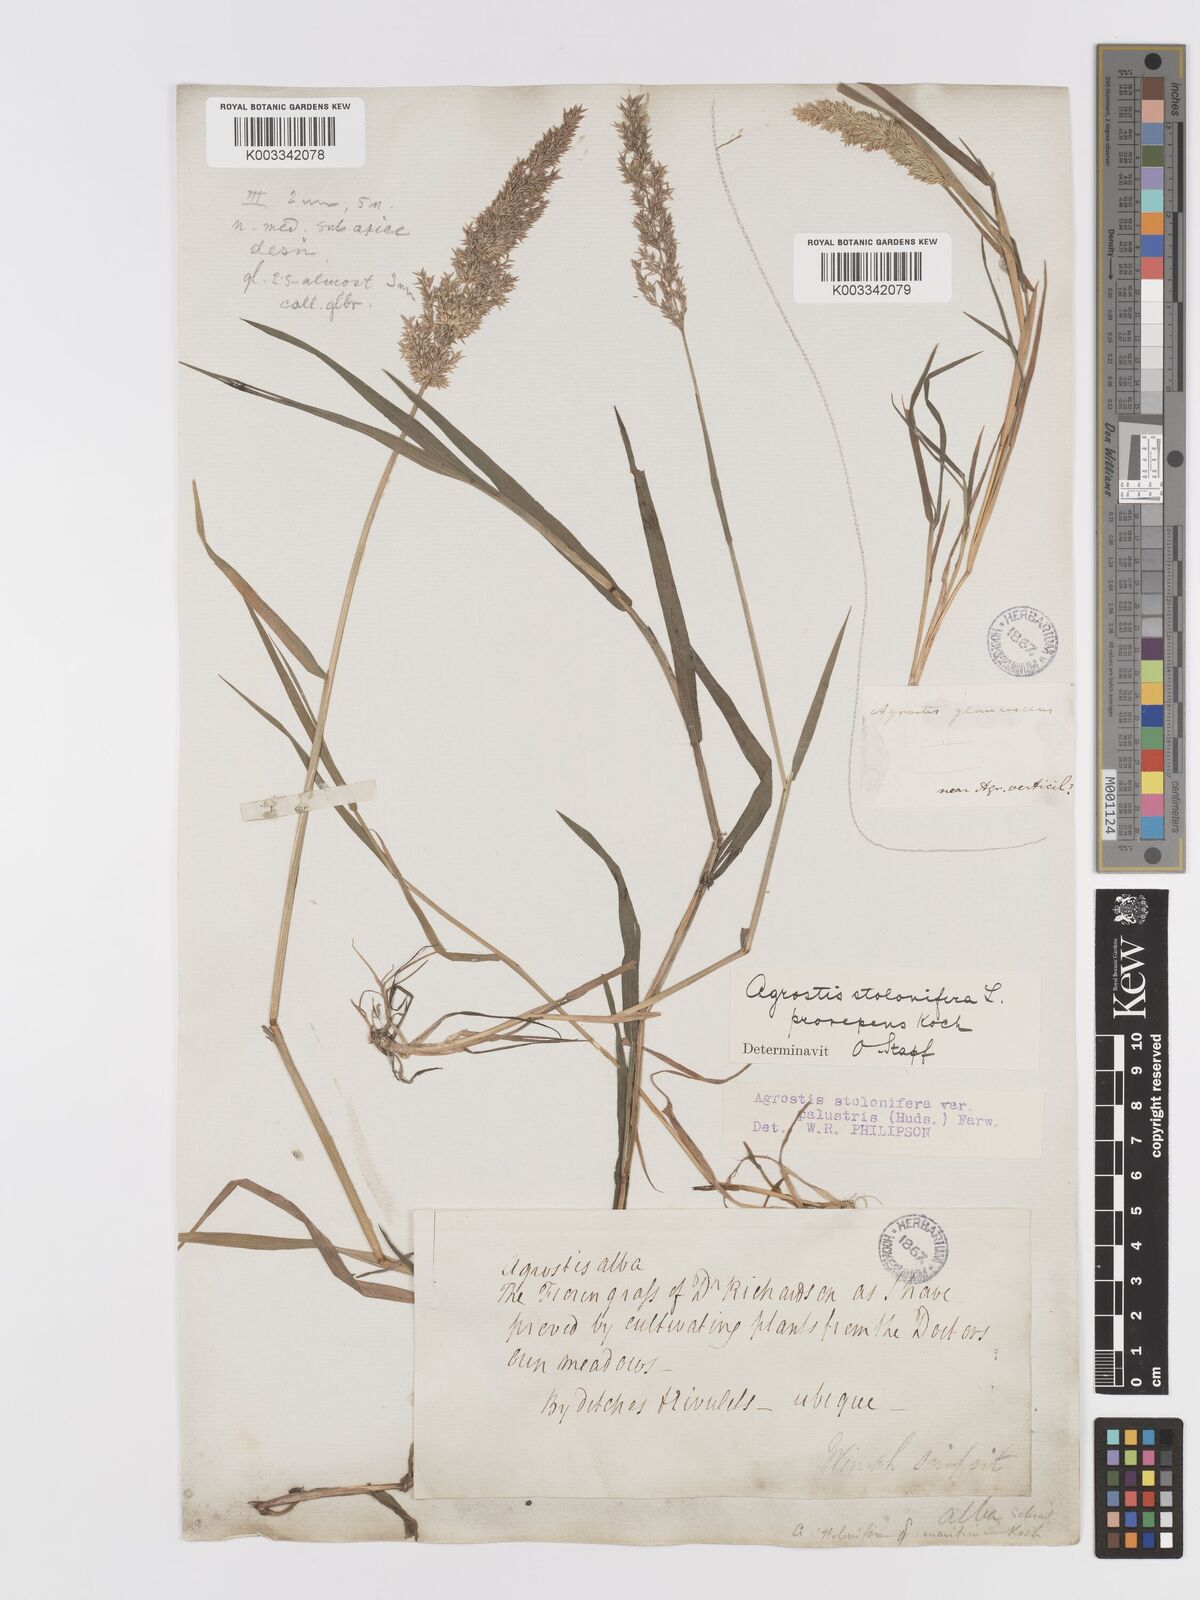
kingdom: Plantae
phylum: Tracheophyta
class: Liliopsida
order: Poales
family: Poaceae
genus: Agrostis
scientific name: Agrostis stolonifera
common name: Creeping bentgrass
